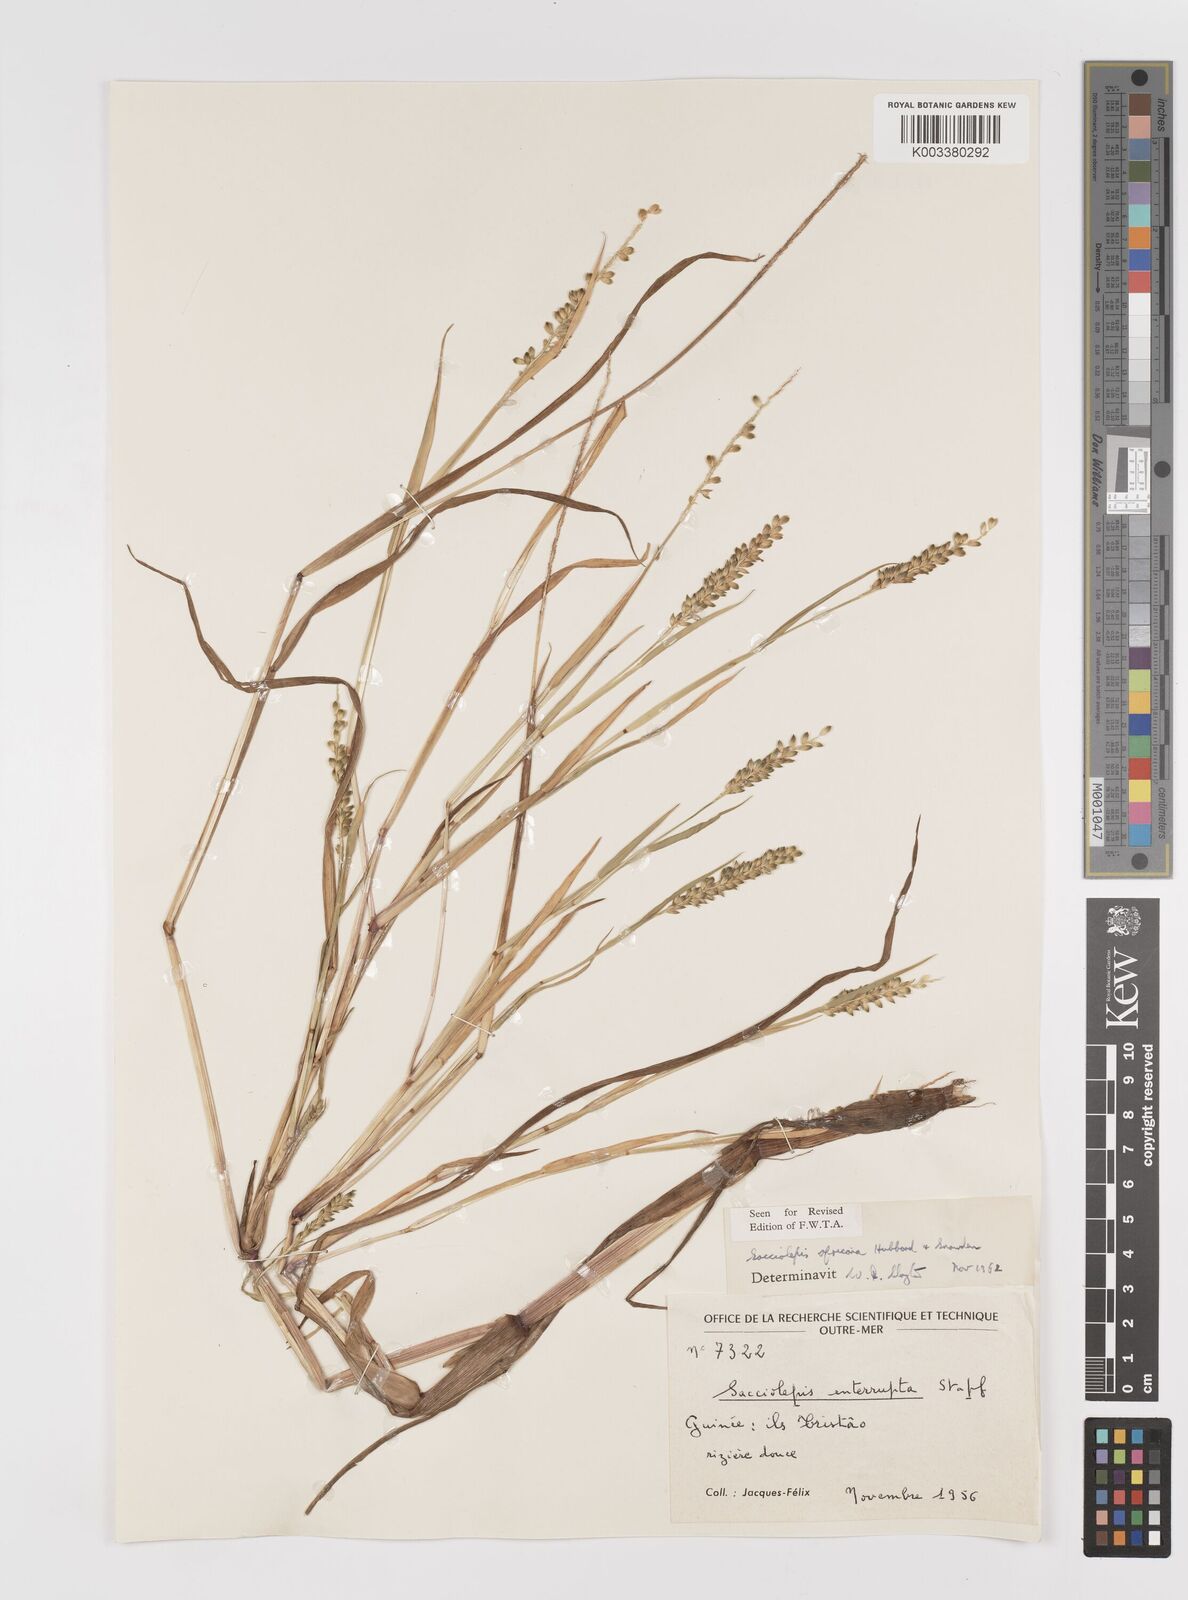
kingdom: Plantae
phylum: Tracheophyta
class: Liliopsida
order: Poales
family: Poaceae
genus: Sacciolepis
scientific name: Sacciolepis africana
